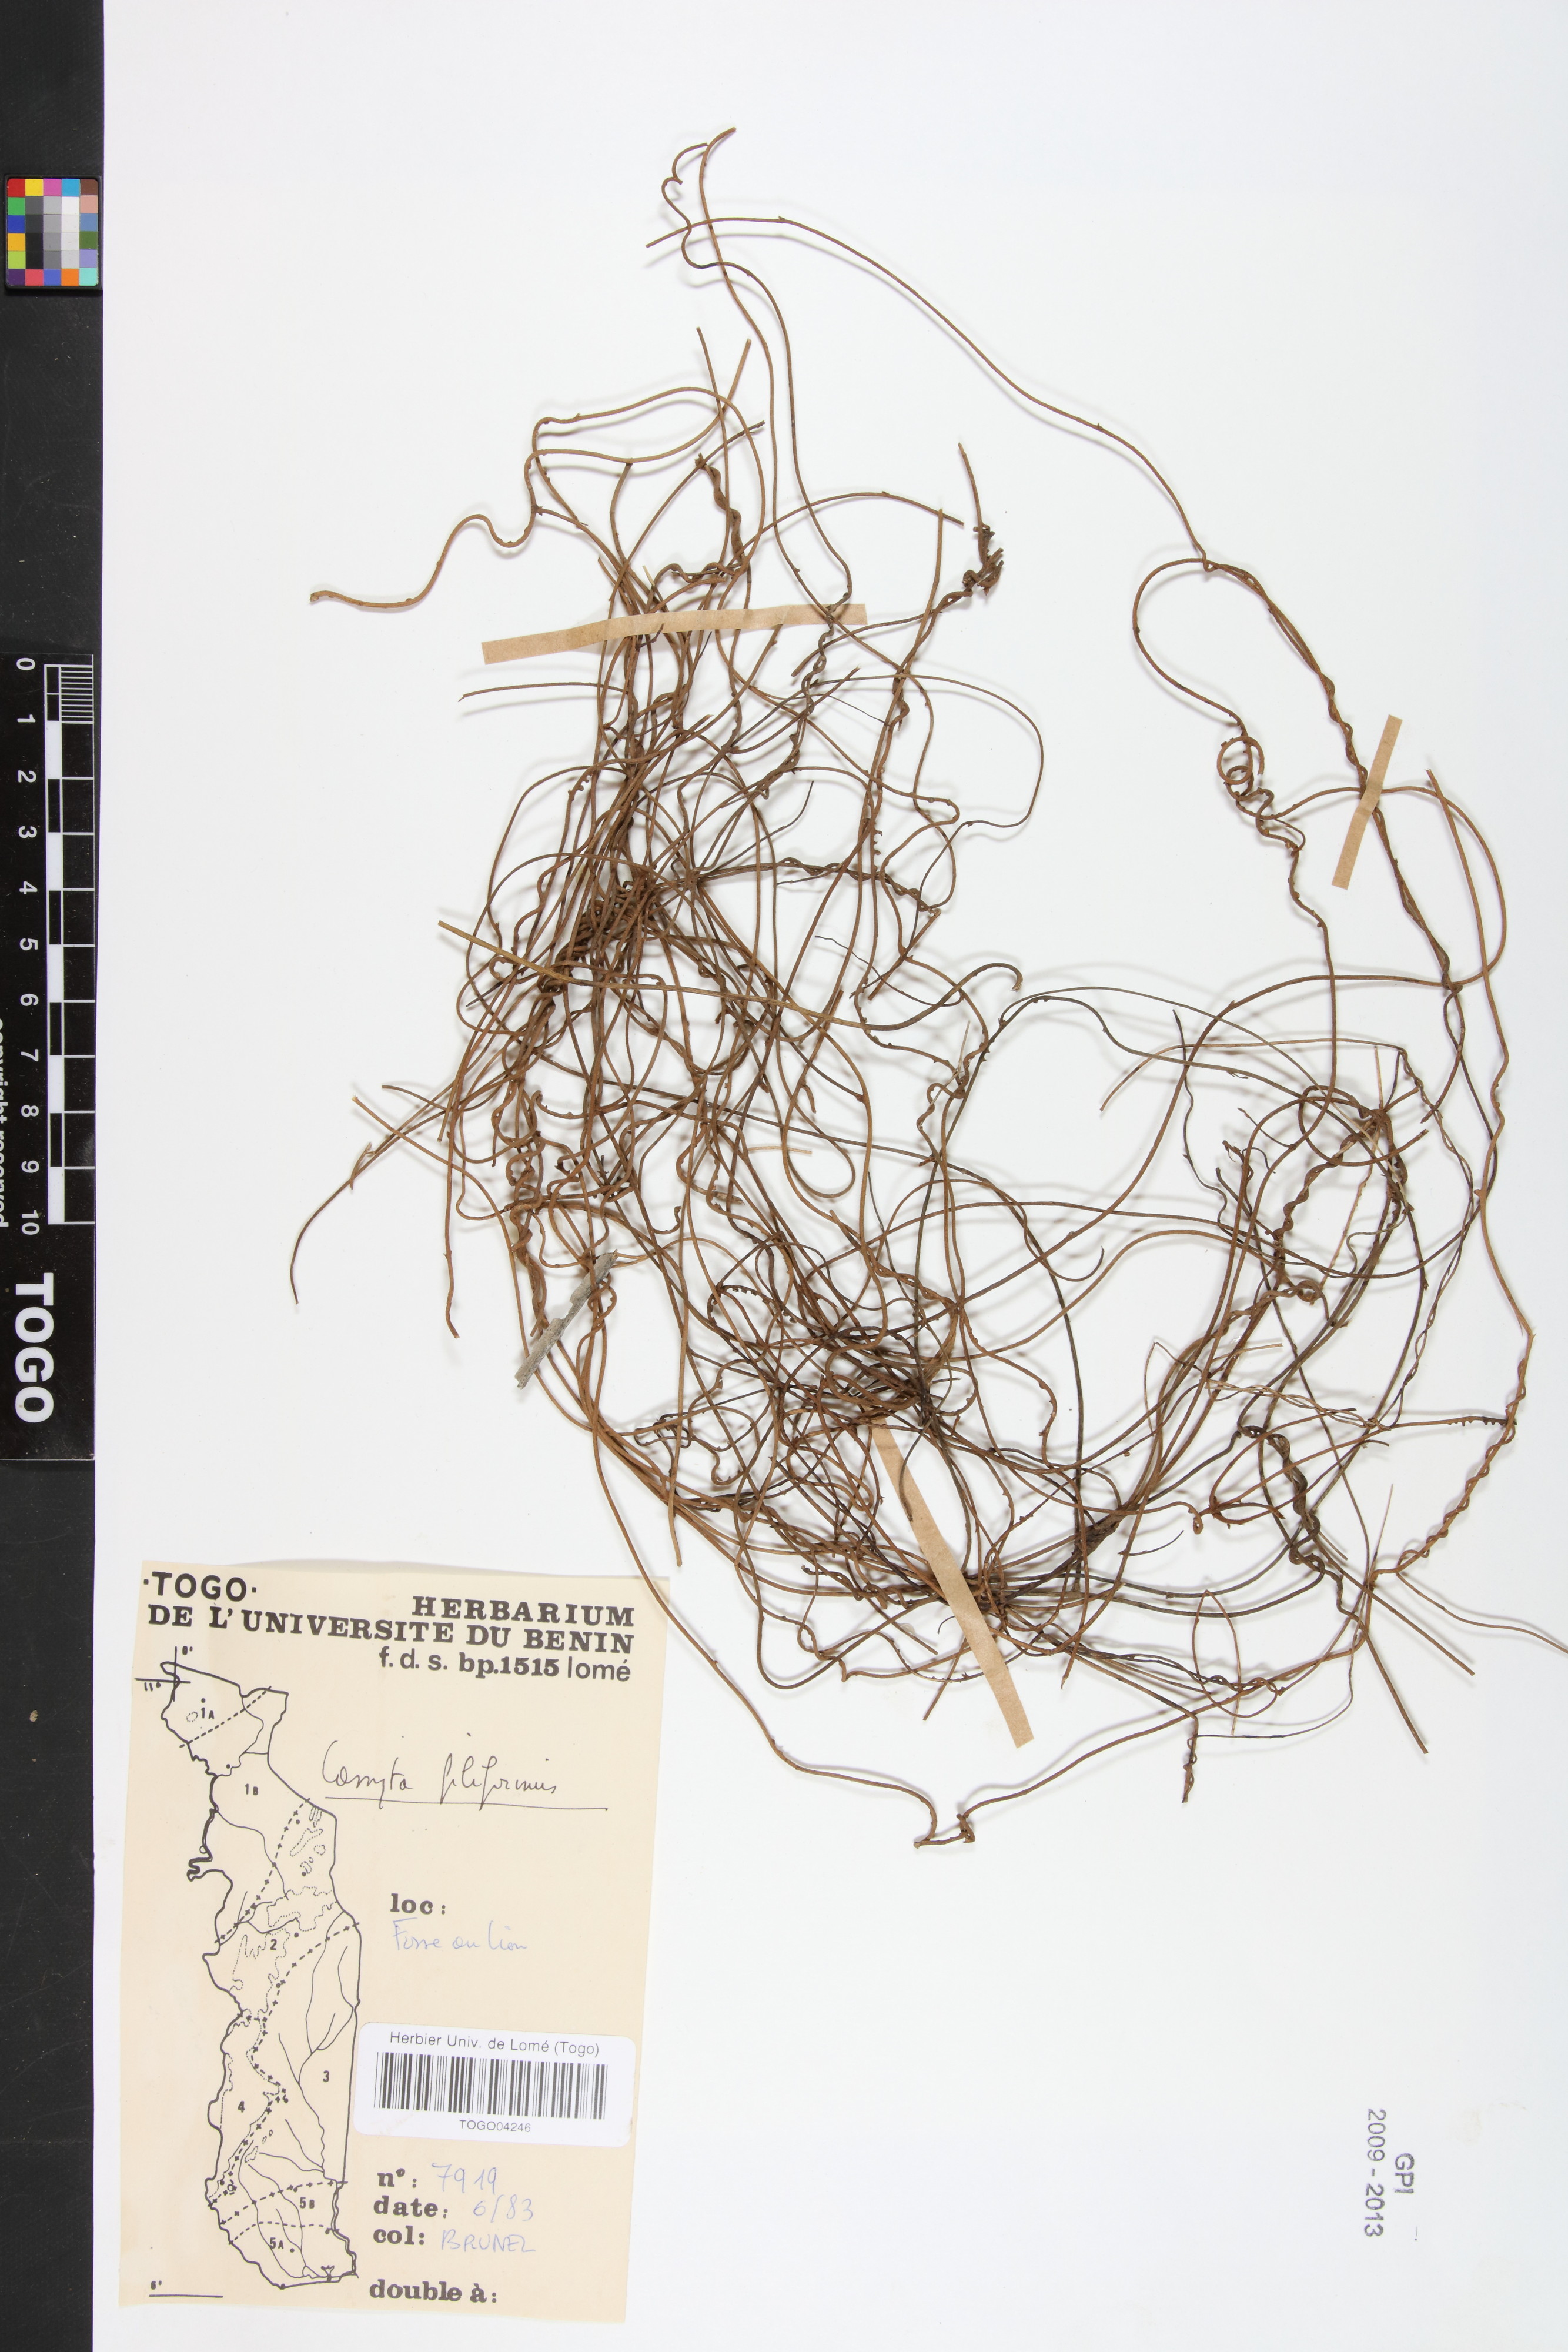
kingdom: Plantae
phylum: Tracheophyta
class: Magnoliopsida
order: Laurales
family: Lauraceae
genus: Cassytha
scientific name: Cassytha filiformis
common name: Dodder-laurel
